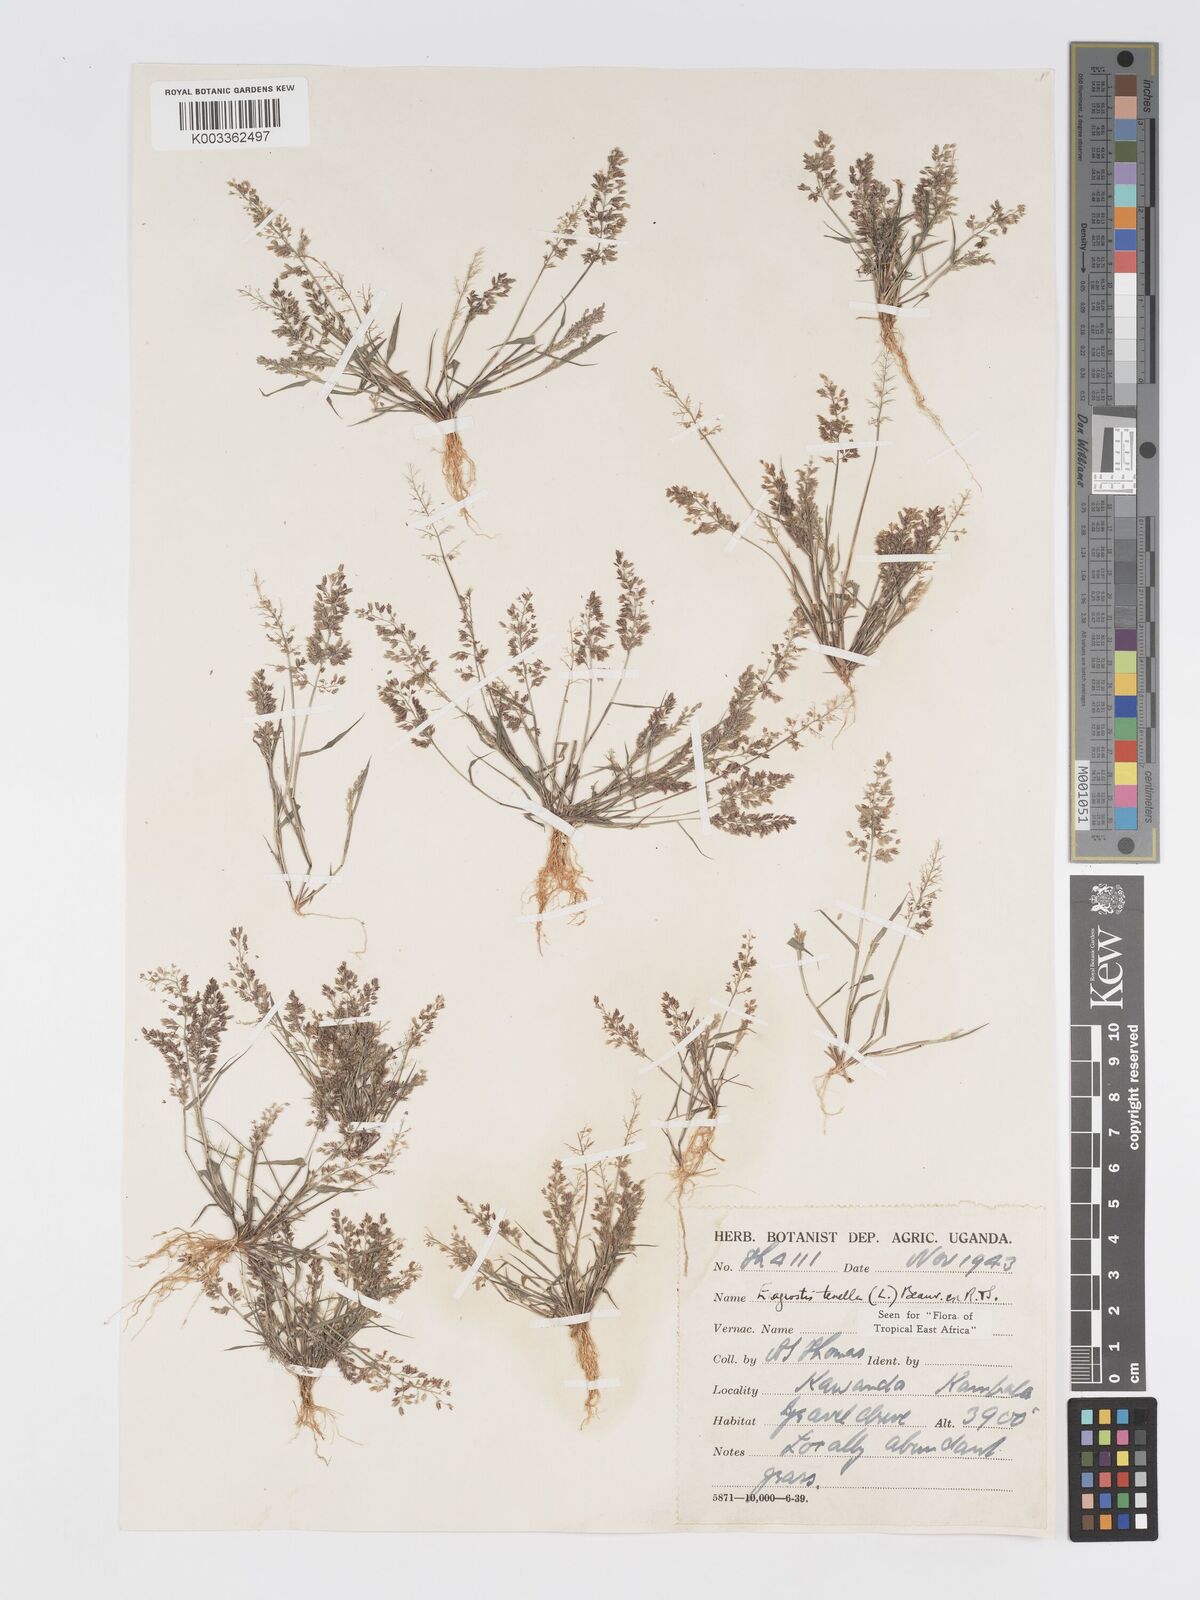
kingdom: Plantae
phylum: Tracheophyta
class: Liliopsida
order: Poales
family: Poaceae
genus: Eragrostis
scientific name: Eragrostis tenella
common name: Japanese lovegrass
